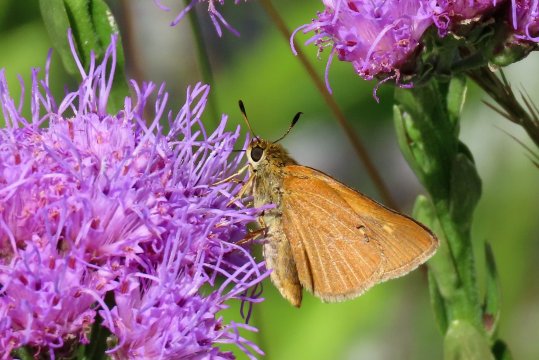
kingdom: Animalia
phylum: Arthropoda
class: Insecta
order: Lepidoptera
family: Hesperiidae
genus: Euphyes
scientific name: Euphyes berryi
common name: Berry's Skipper
